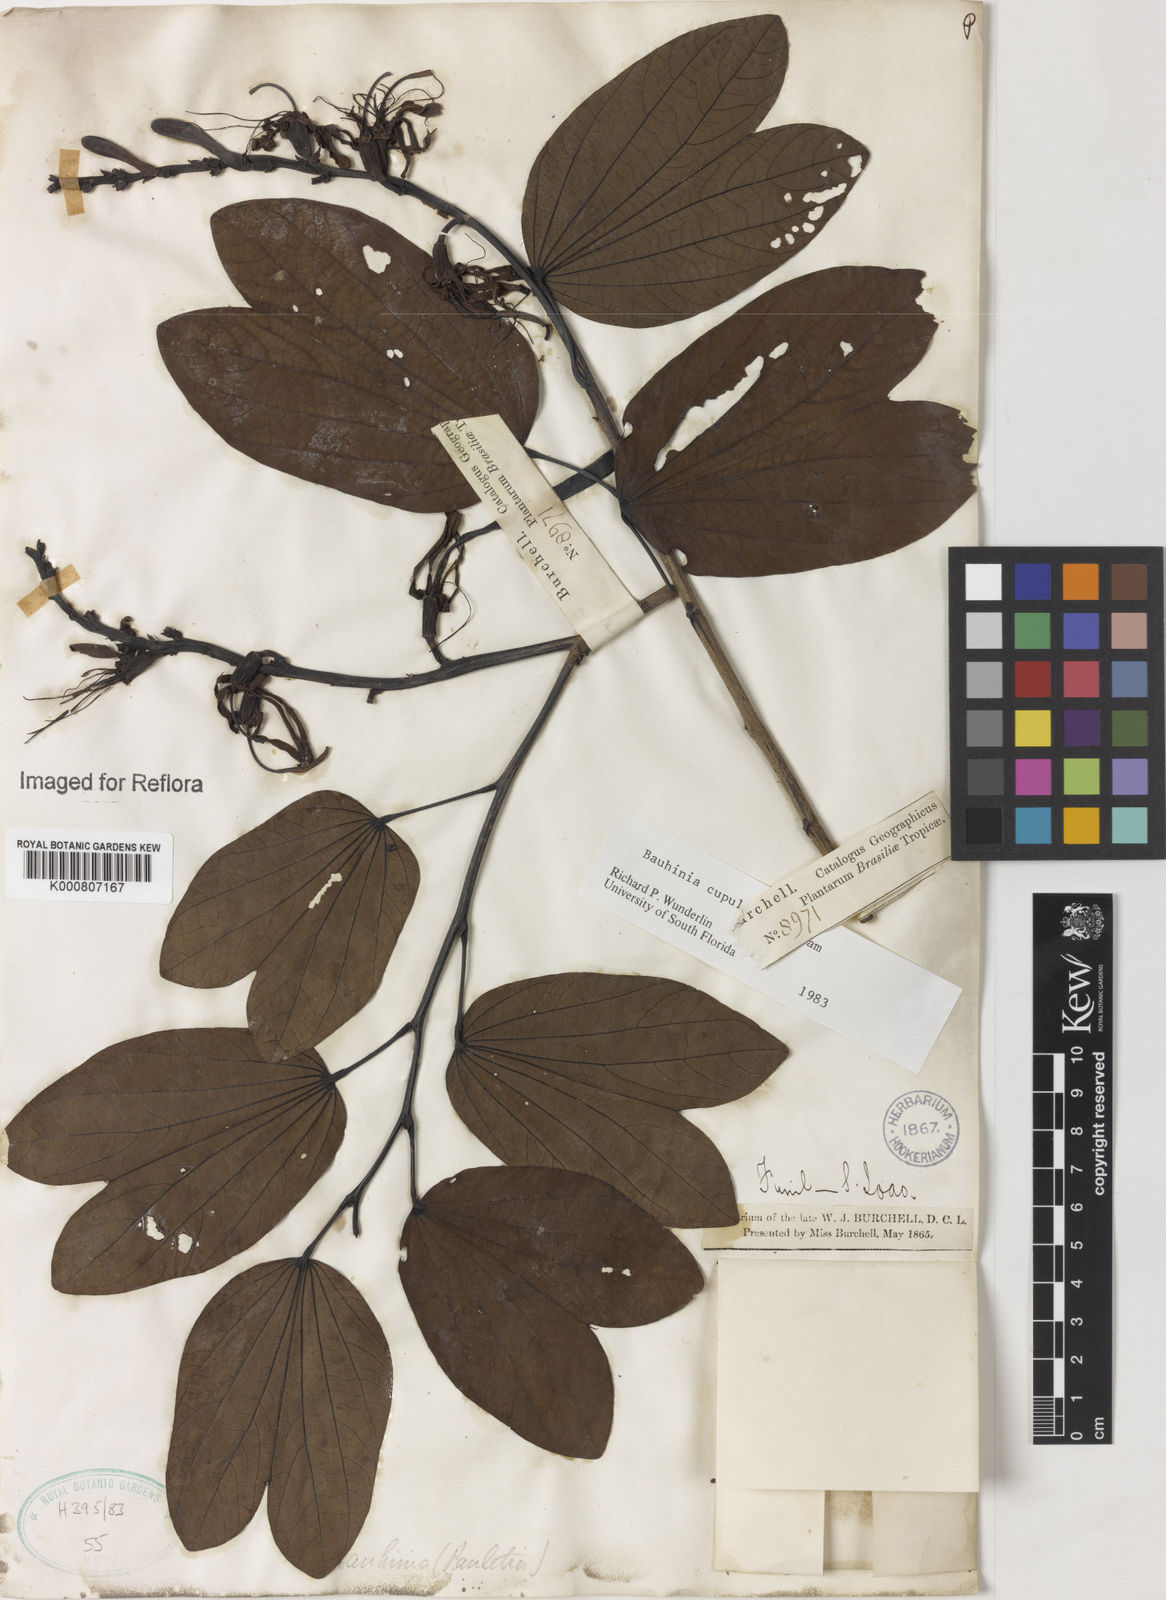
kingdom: Plantae
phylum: Tracheophyta
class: Magnoliopsida
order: Fabales
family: Fabaceae
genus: Bauhinia
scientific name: Bauhinia cupulata
